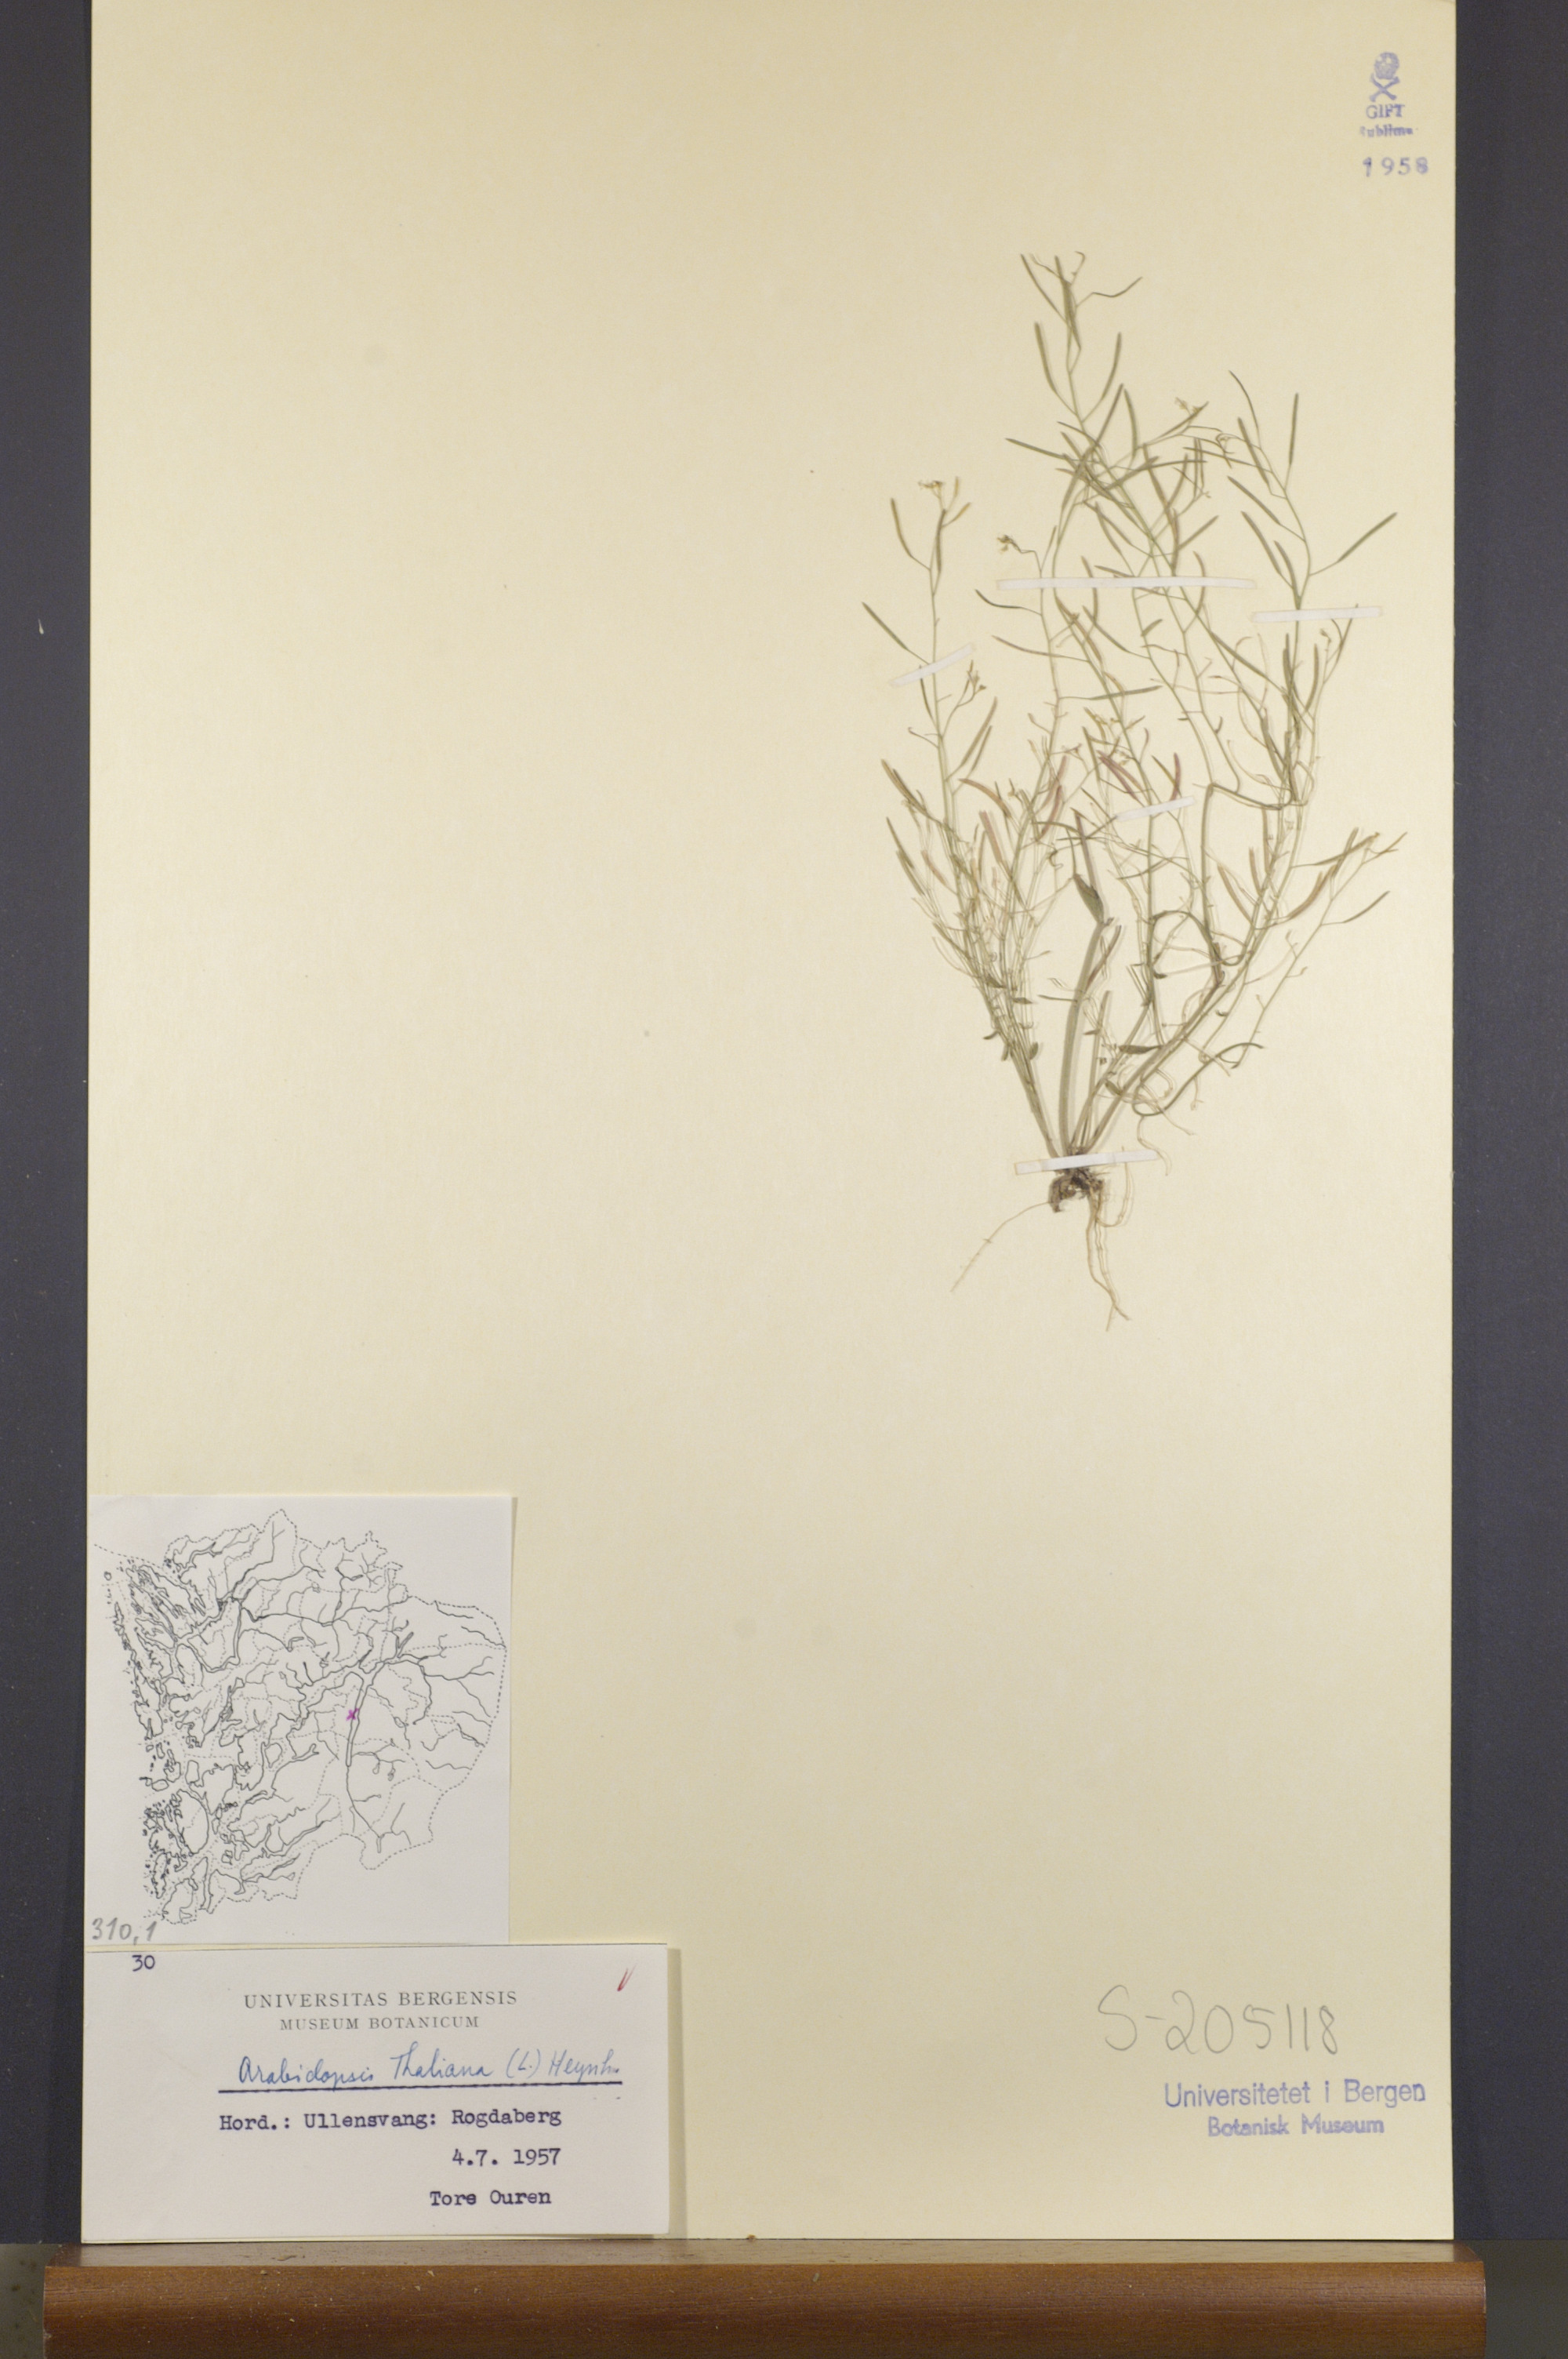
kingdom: Plantae
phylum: Tracheophyta
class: Magnoliopsida
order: Brassicales
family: Brassicaceae
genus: Arabidopsis
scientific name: Arabidopsis thaliana
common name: Thale cress
